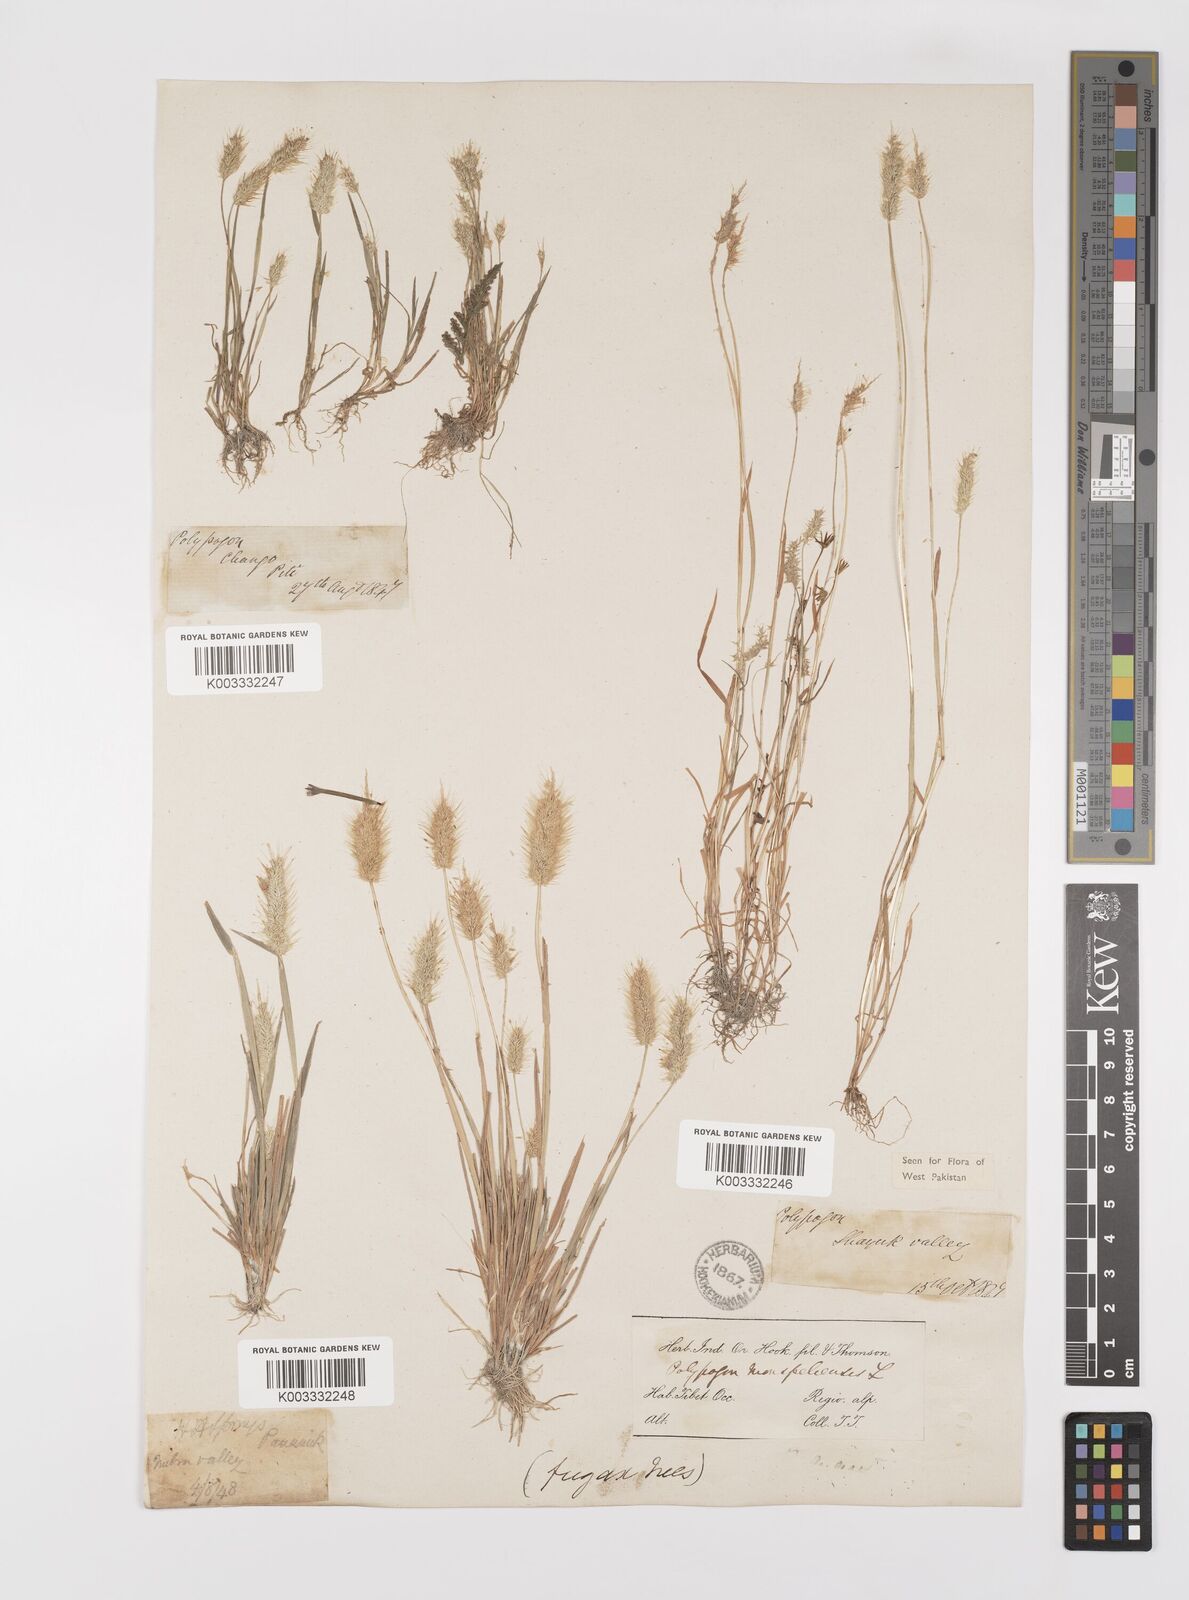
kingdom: Plantae
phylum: Tracheophyta
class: Liliopsida
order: Poales
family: Poaceae
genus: Polypogon
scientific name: Polypogon monspeliensis
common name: Annual rabbitsfoot grass
